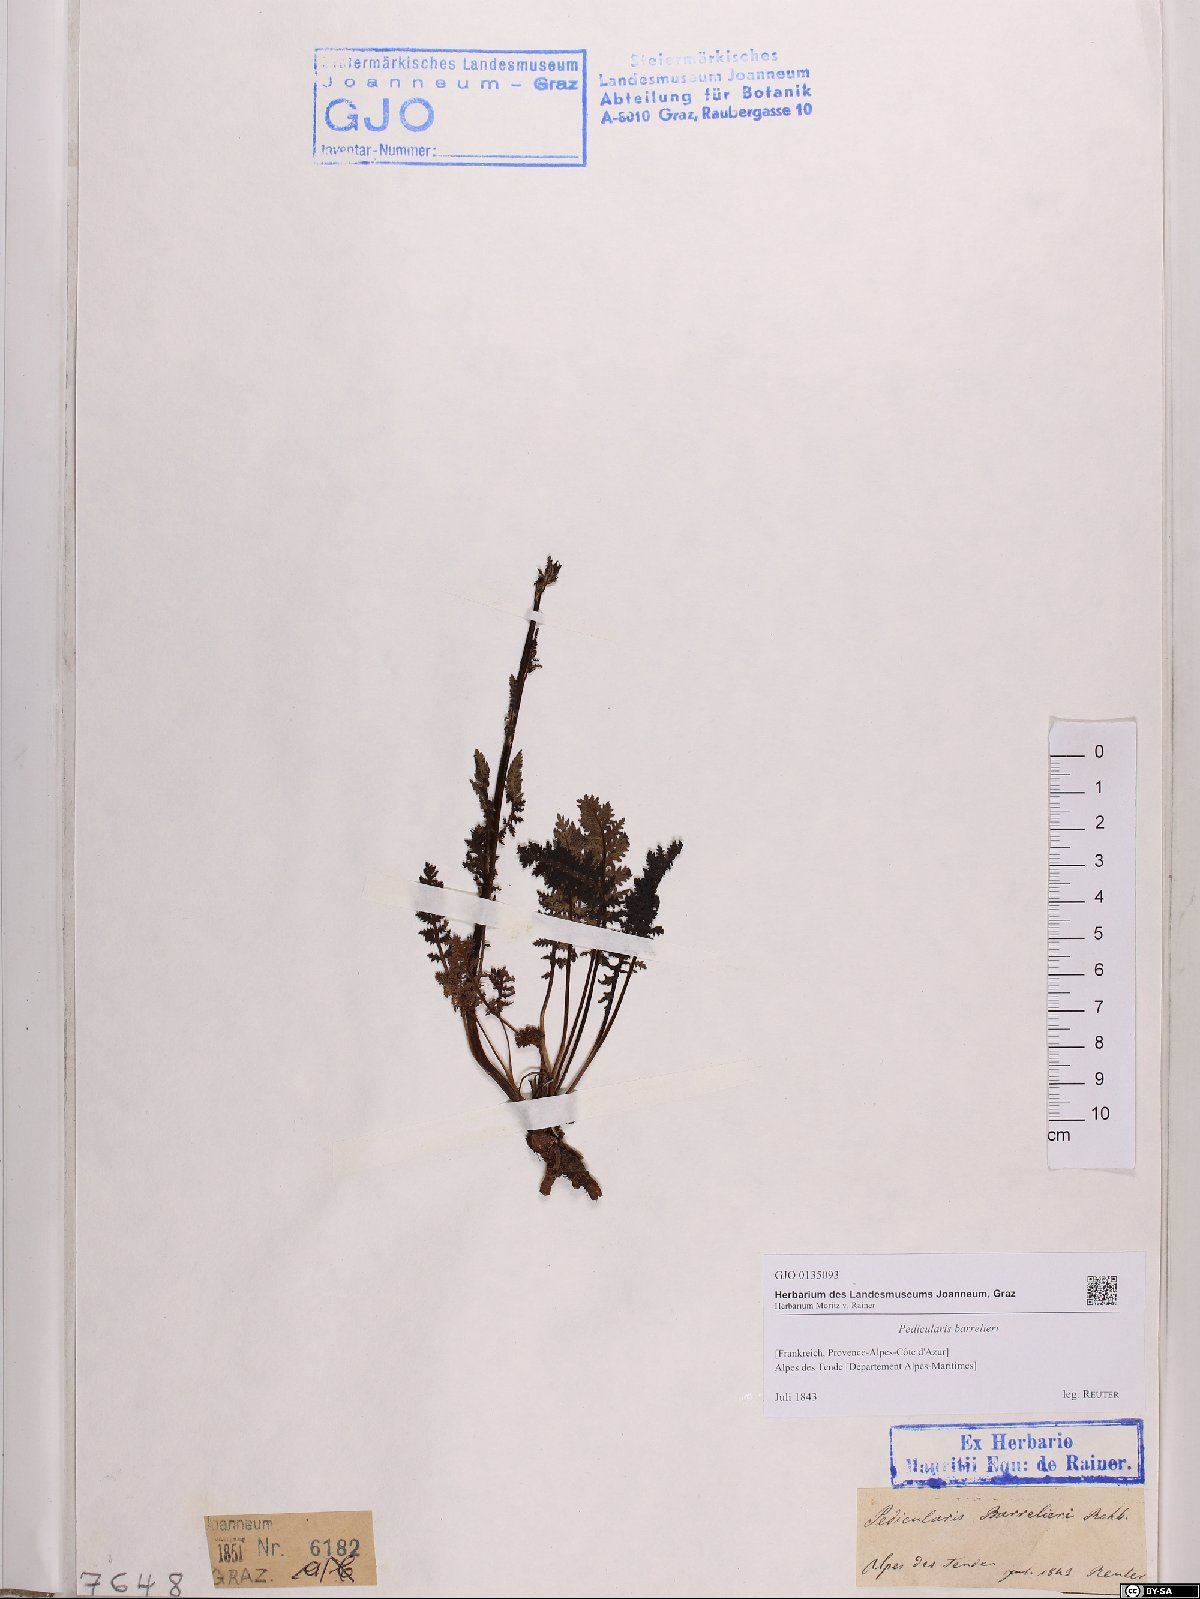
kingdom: Plantae
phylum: Tracheophyta
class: Magnoliopsida
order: Lamiales
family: Orobanchaceae
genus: Pedicularis
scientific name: Pedicularis ascendens
